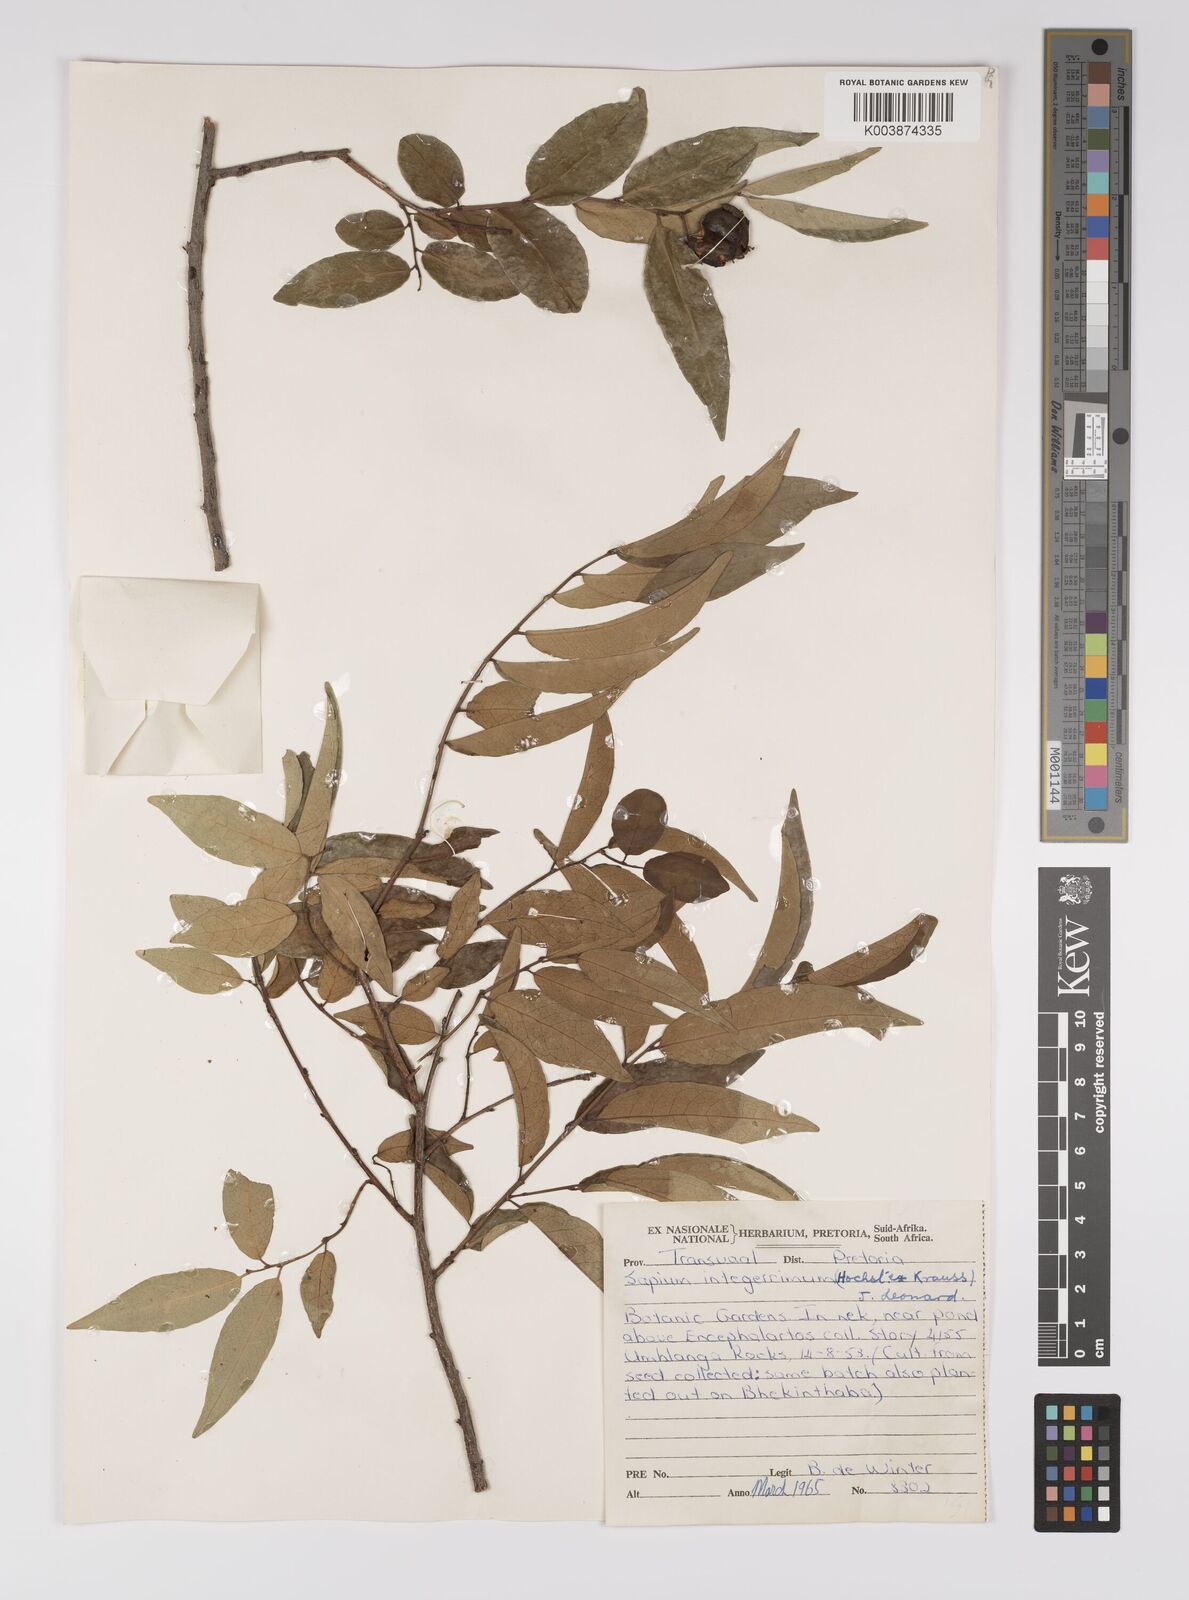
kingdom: Plantae
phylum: Tracheophyta
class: Magnoliopsida
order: Malpighiales
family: Euphorbiaceae
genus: Sclerocroton
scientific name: Sclerocroton integerrimus
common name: Duiker berry
